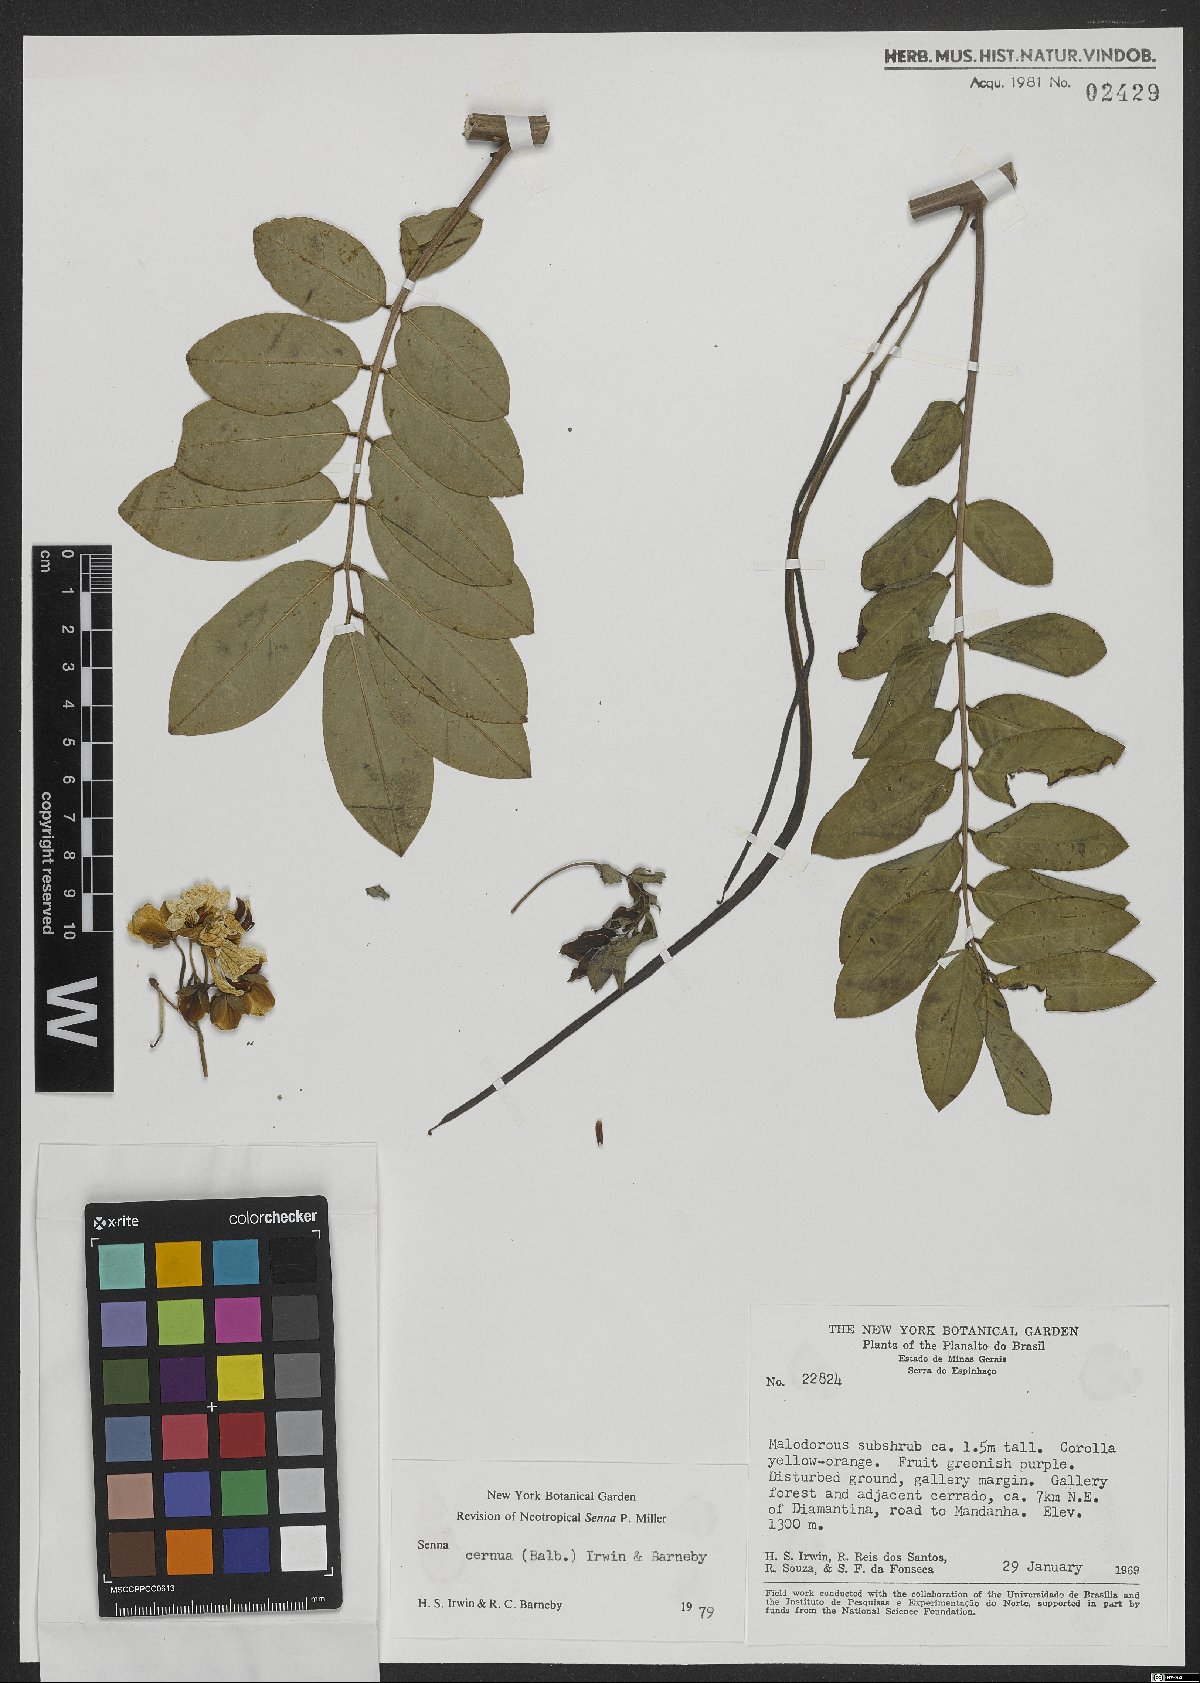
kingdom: Plantae
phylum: Tracheophyta
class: Magnoliopsida
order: Fabales
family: Fabaceae
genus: Senna
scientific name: Senna cernua
